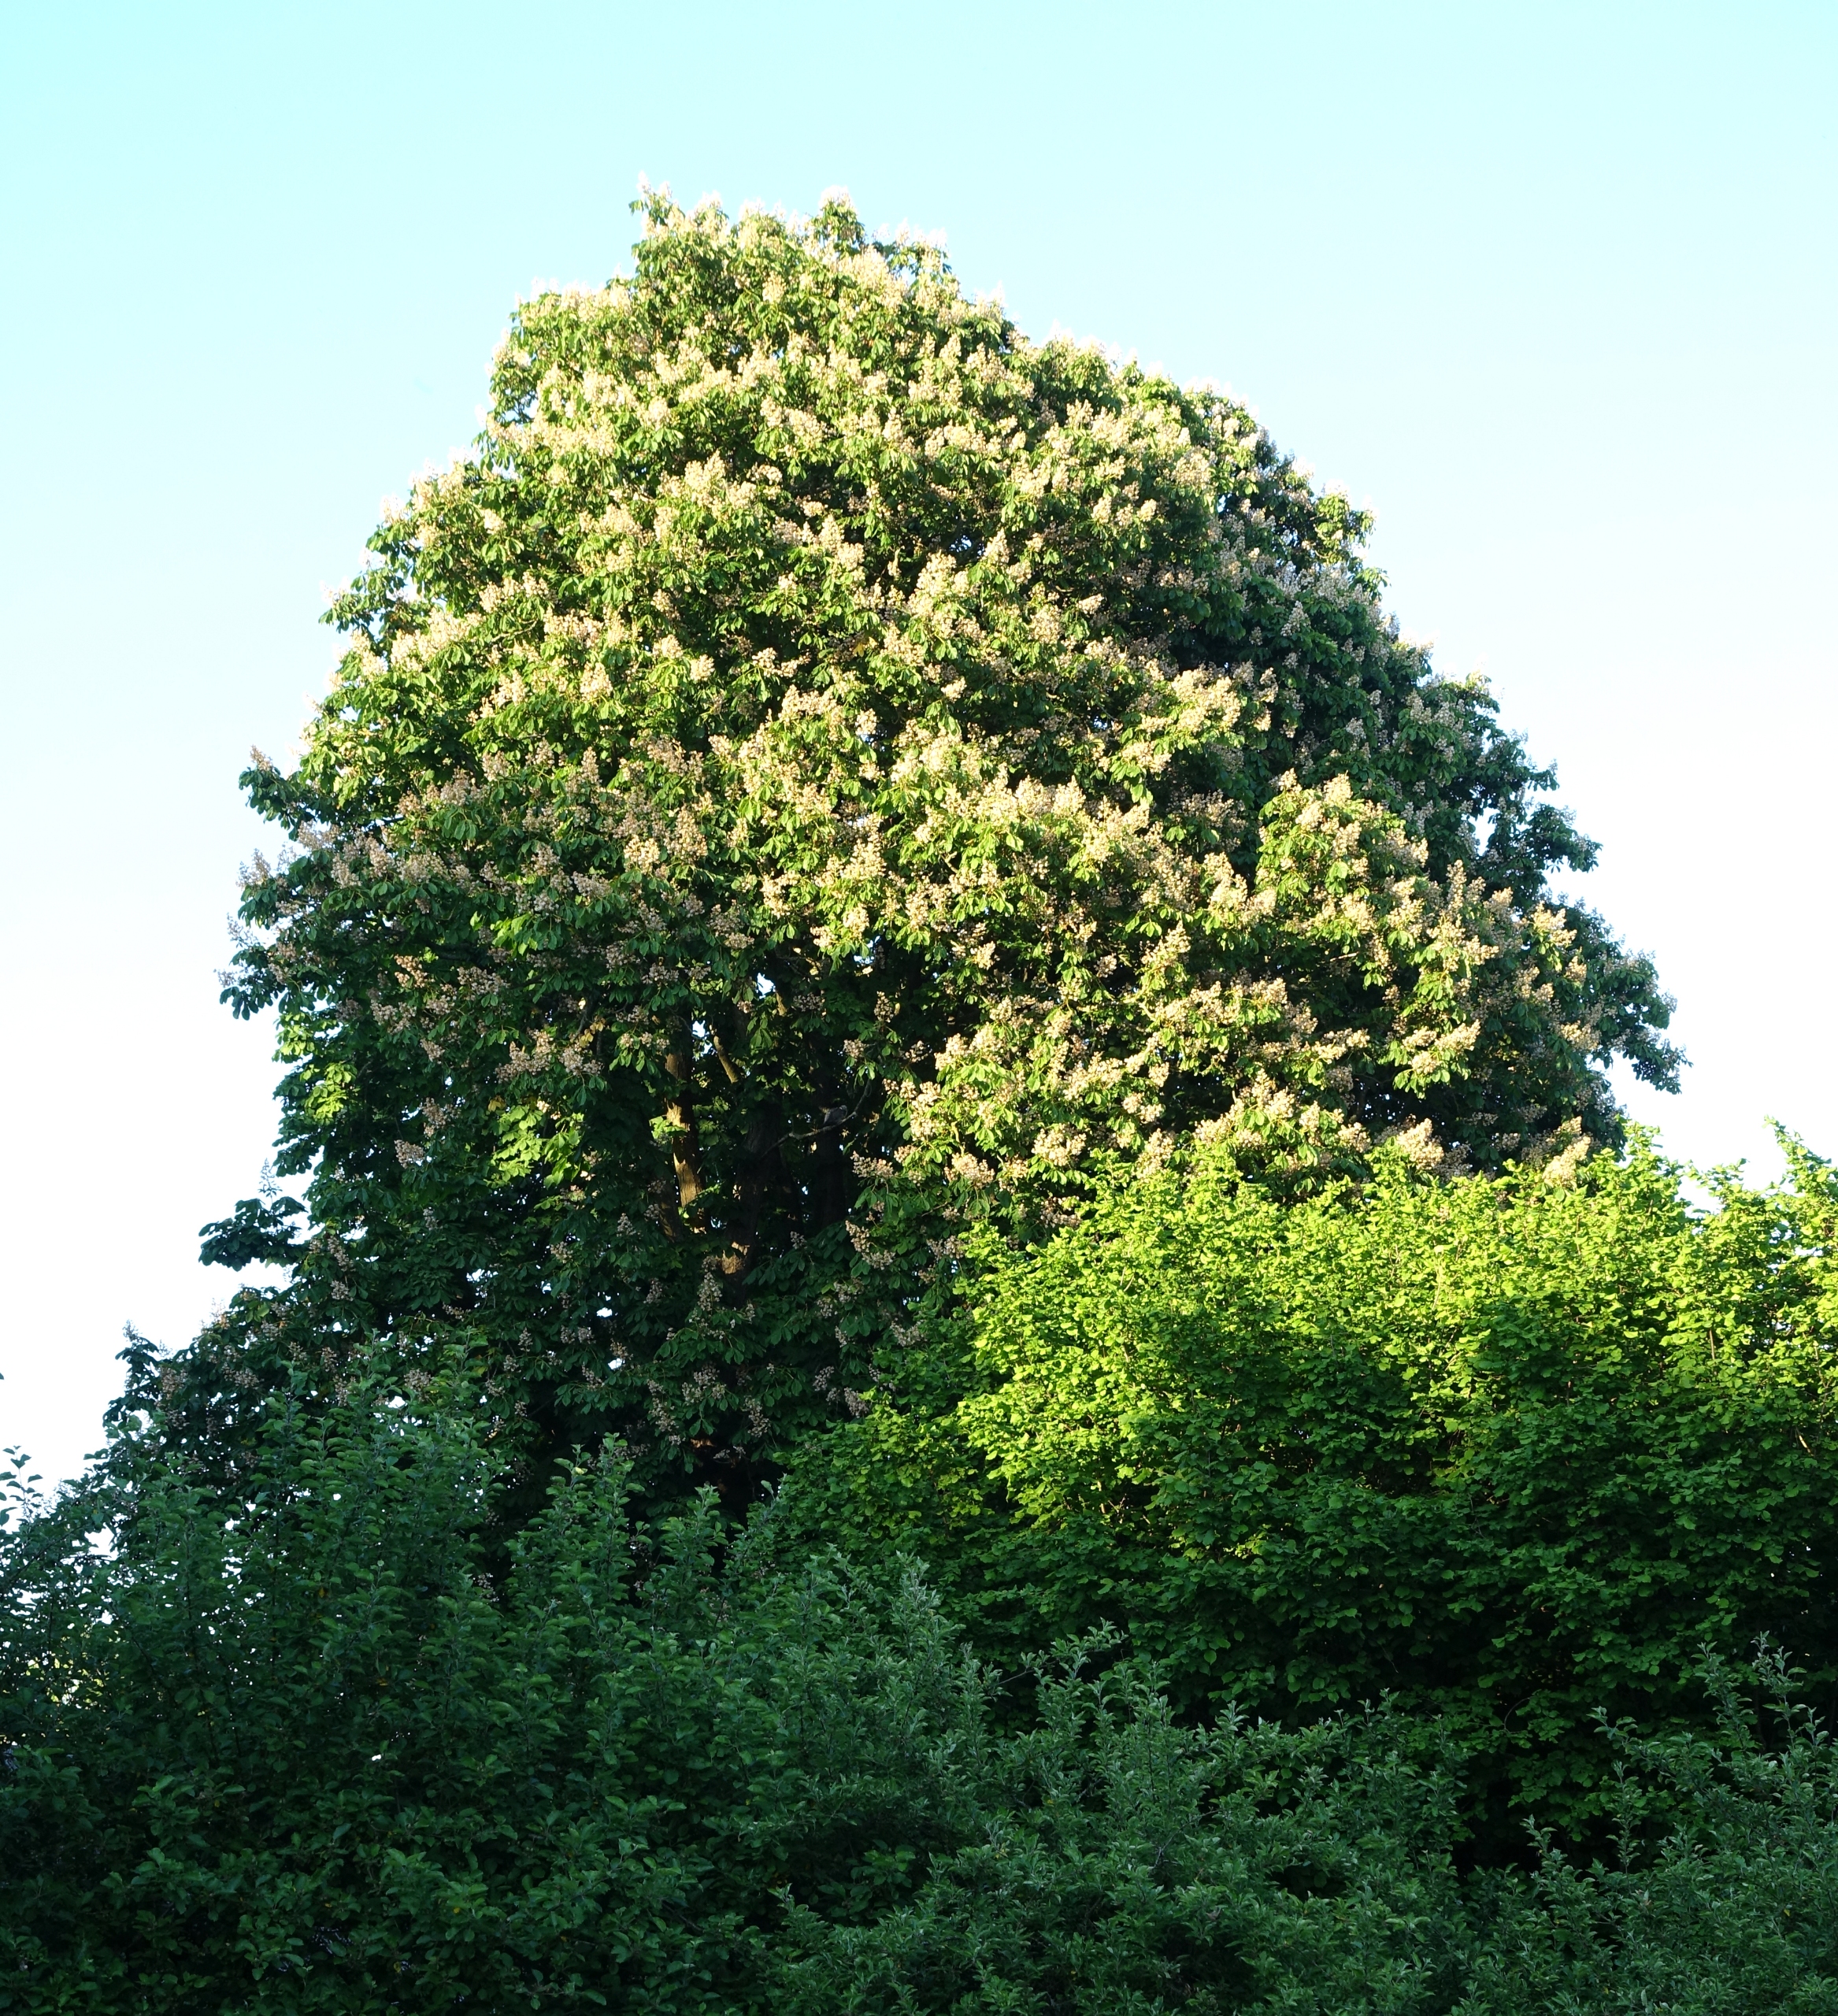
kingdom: Plantae
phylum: Tracheophyta
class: Magnoliopsida
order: Sapindales
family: Sapindaceae
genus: Aesculus
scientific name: Aesculus hippocastanum
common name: Hestekastanie
